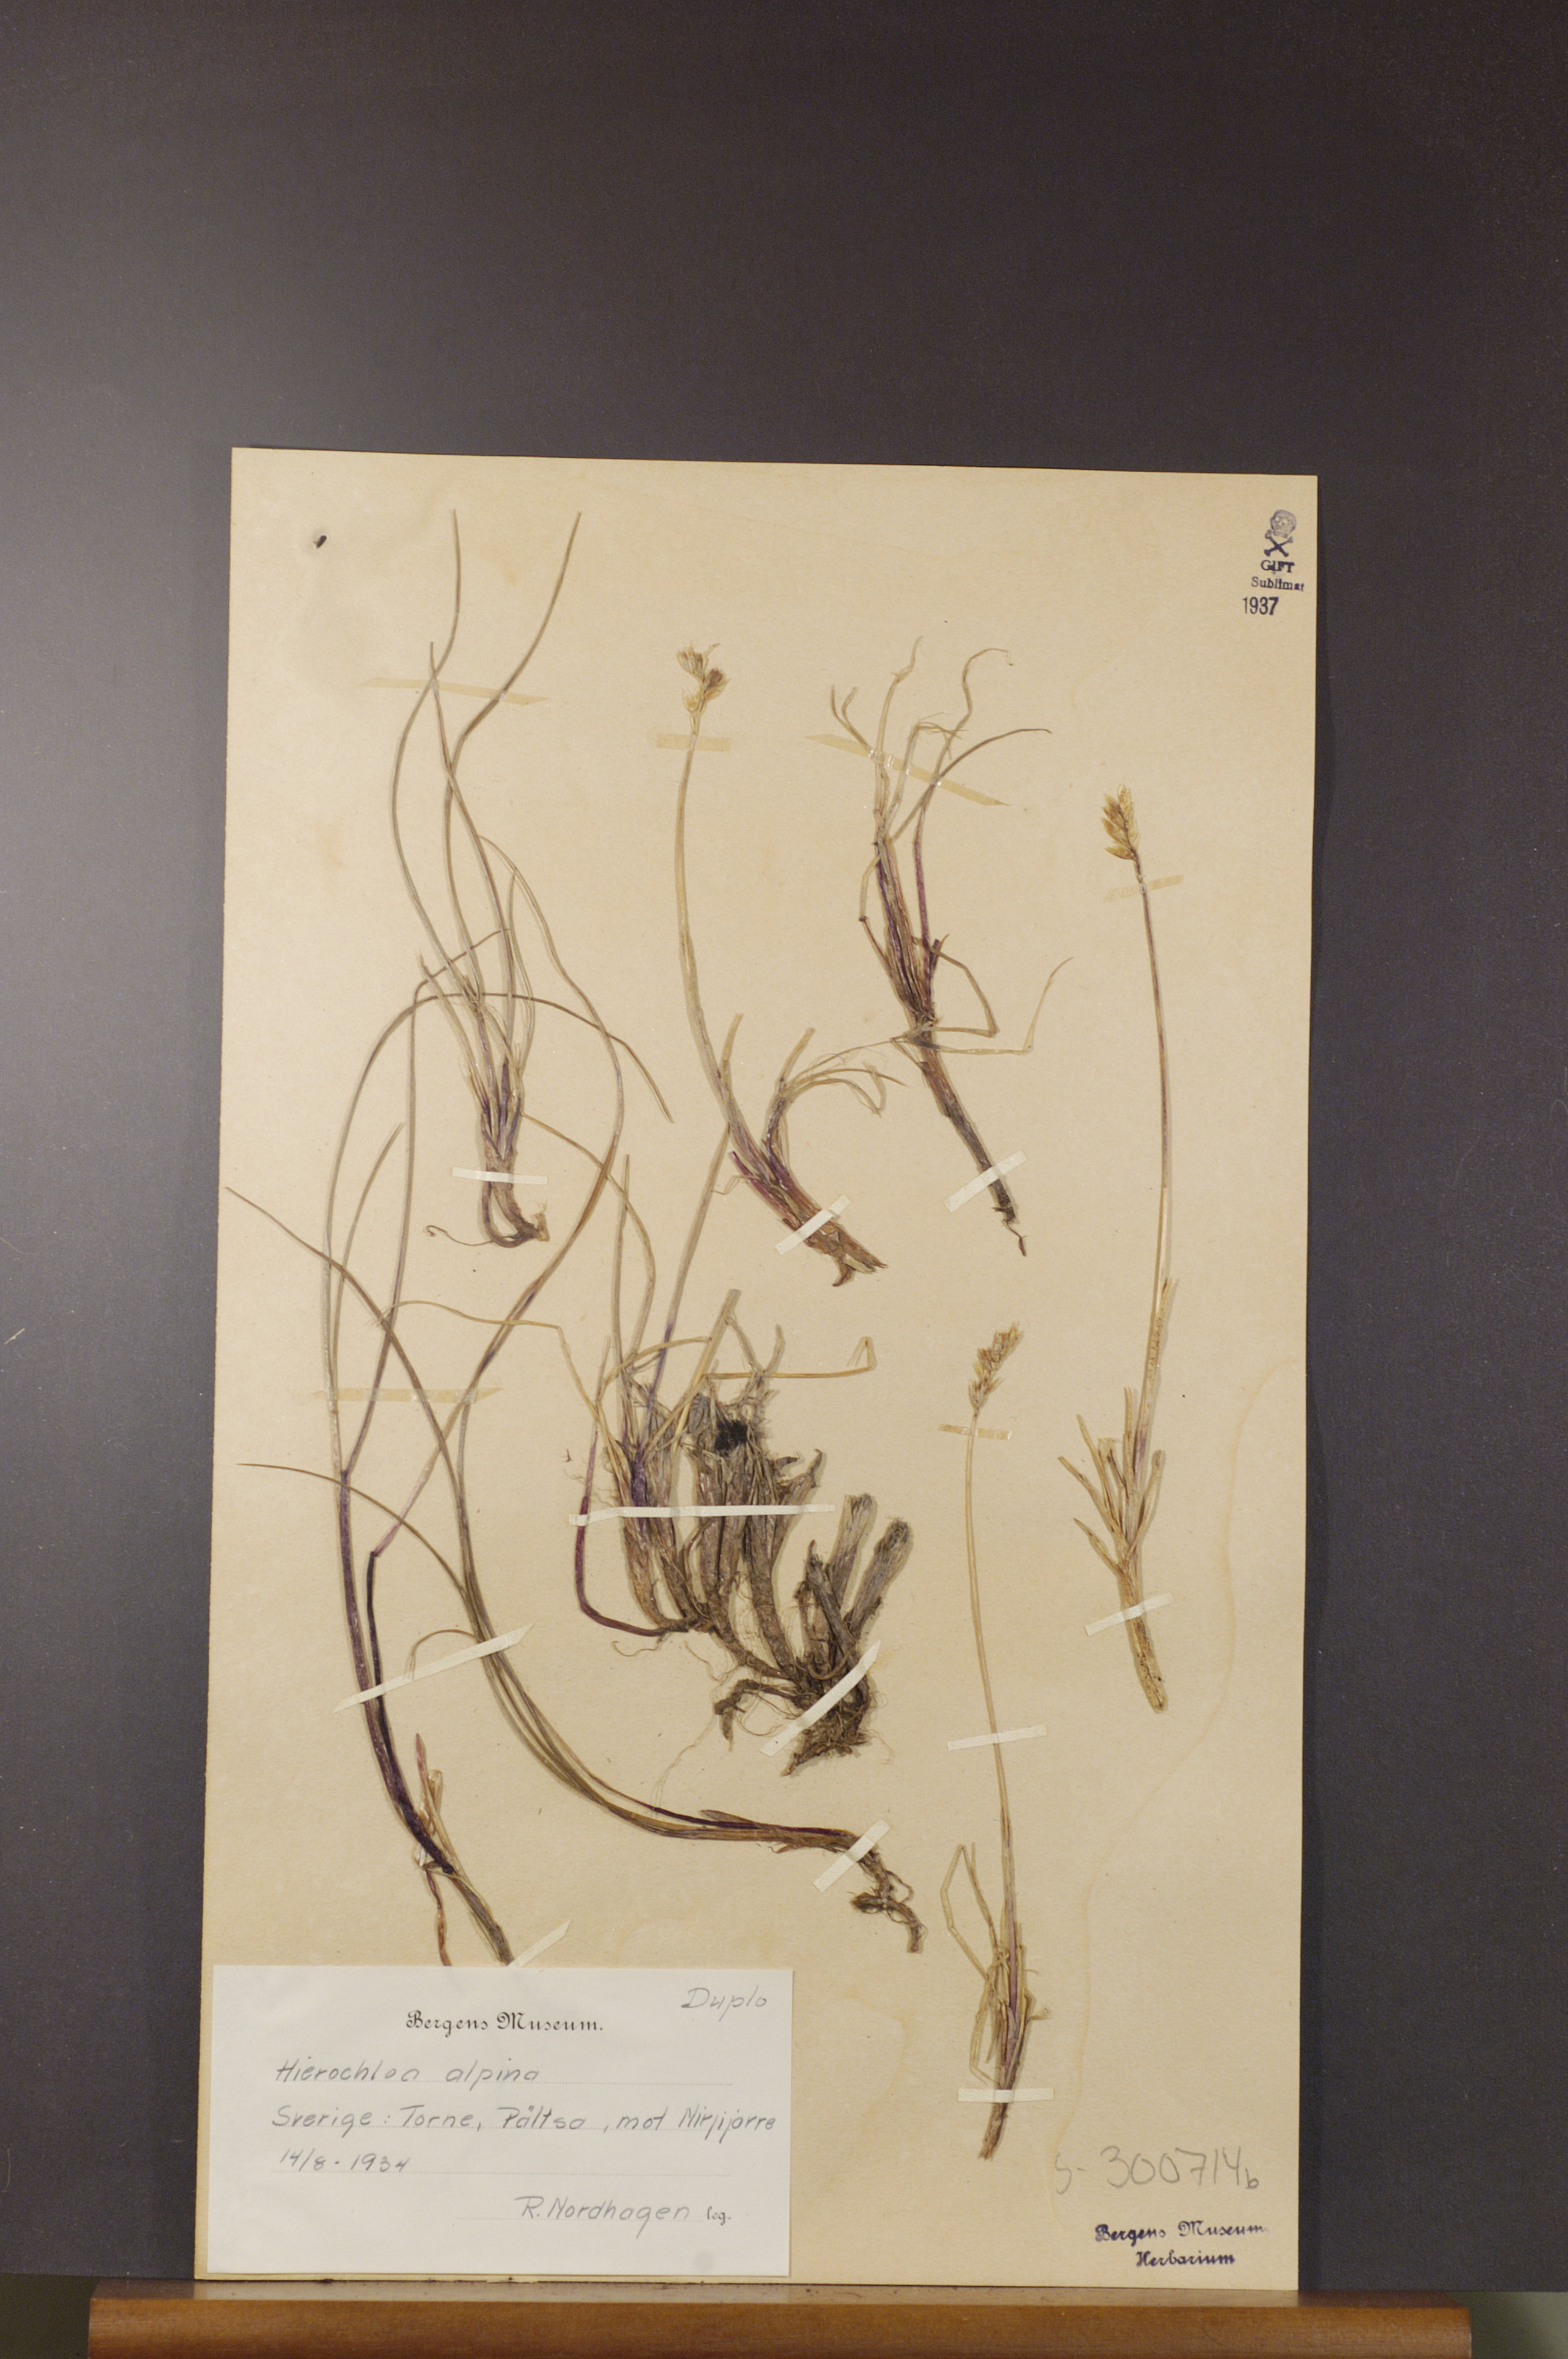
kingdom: Plantae
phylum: Tracheophyta
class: Liliopsida
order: Poales
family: Poaceae
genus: Anthoxanthum
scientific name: Anthoxanthum monticola
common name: Alpine sweetgrass
